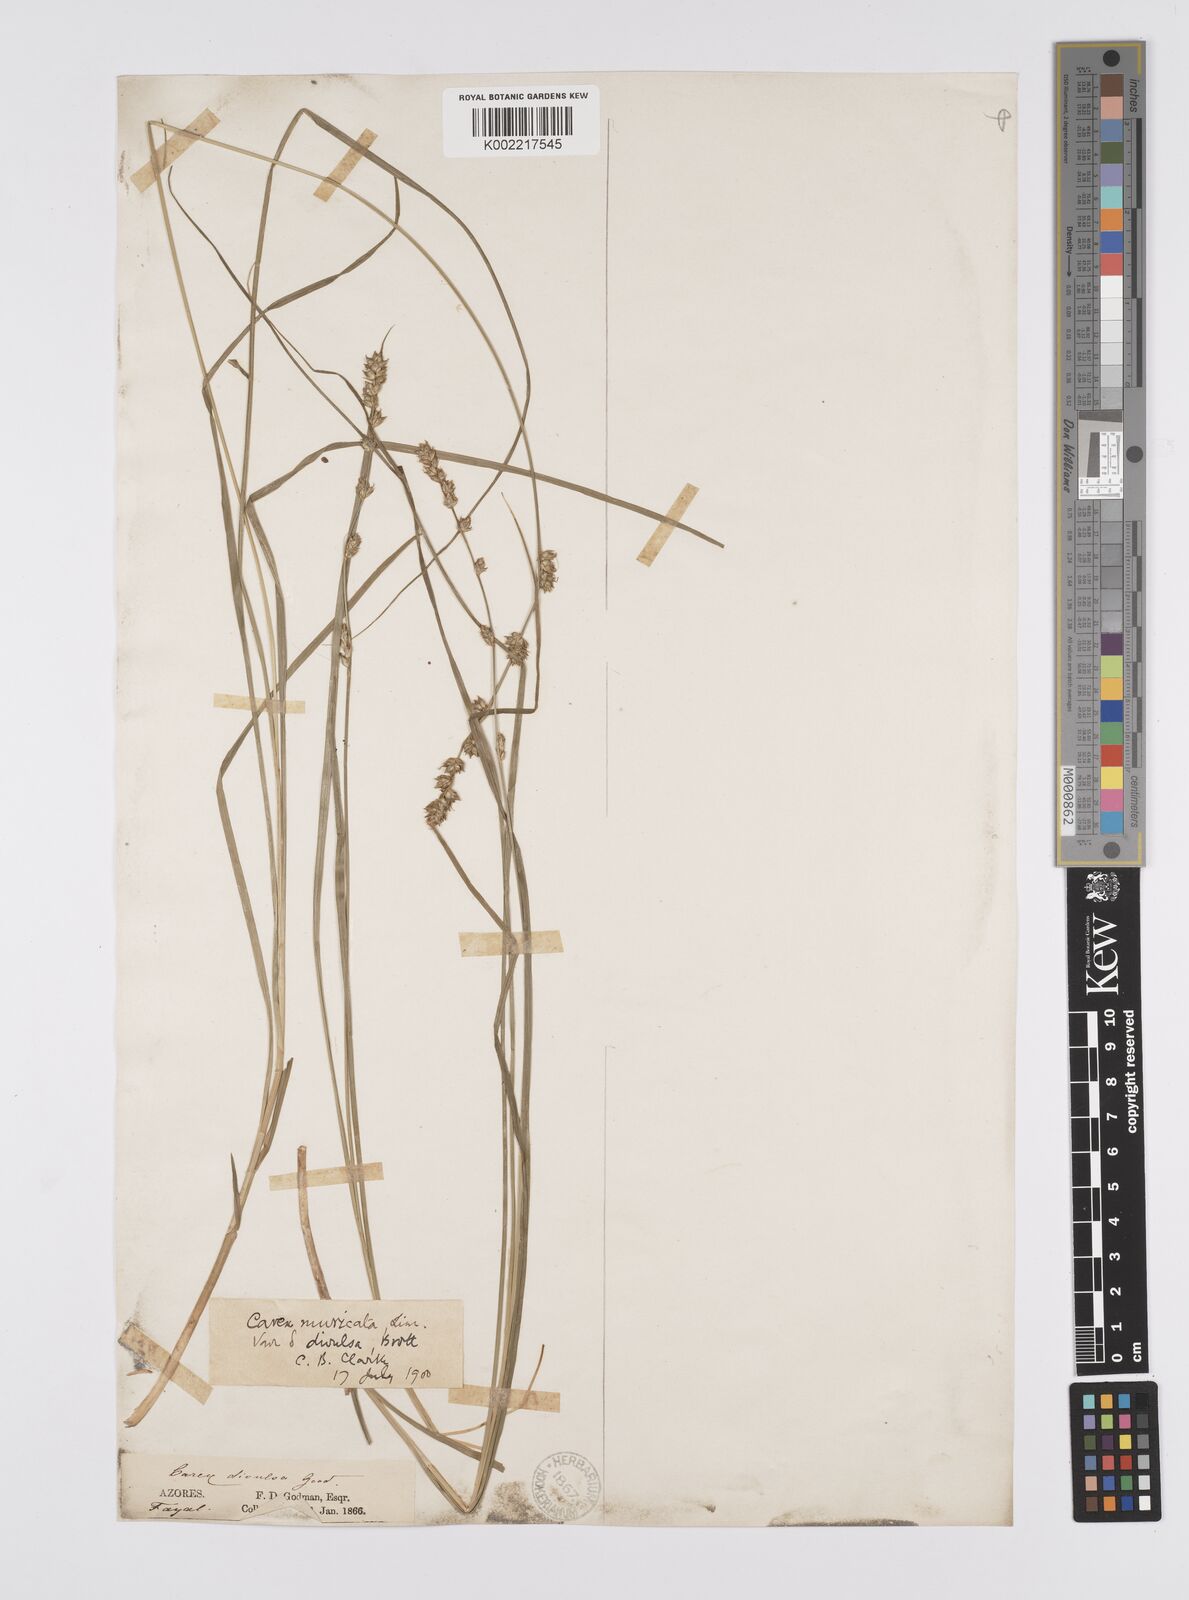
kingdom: Plantae
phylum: Tracheophyta
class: Liliopsida
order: Poales
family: Cyperaceae
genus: Carex
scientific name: Carex divulsa
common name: Grassland sedge
